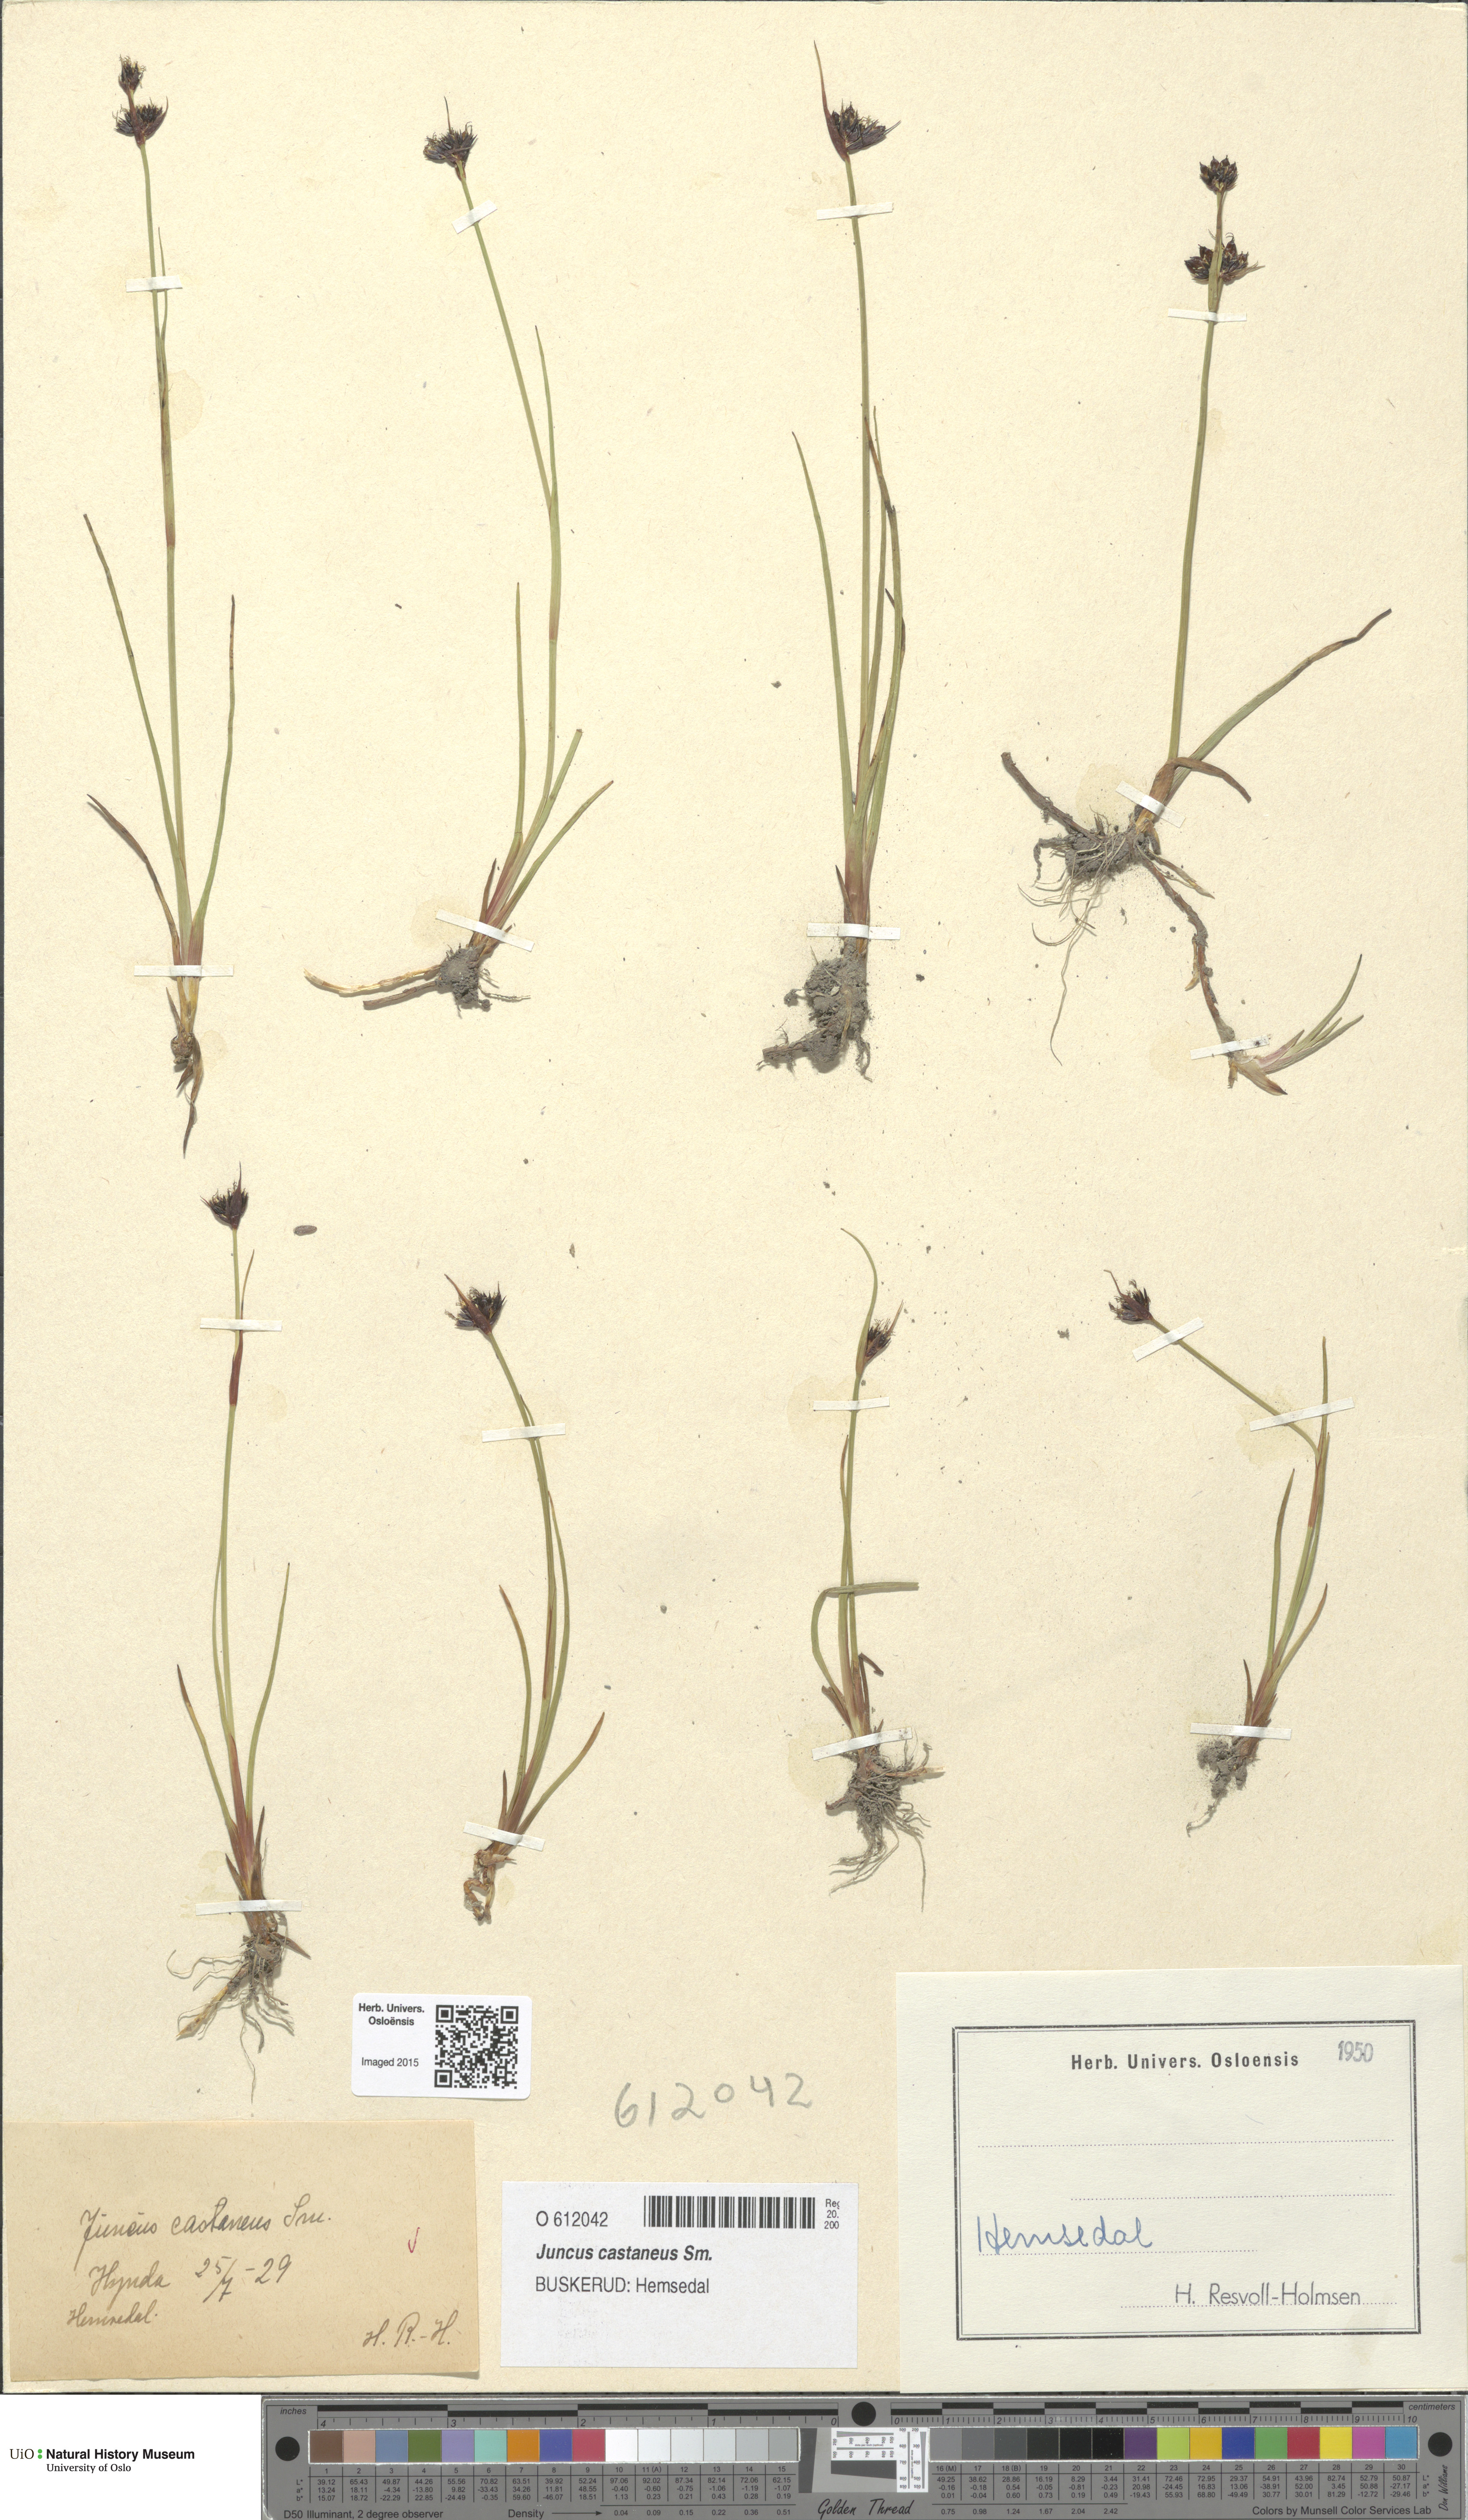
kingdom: Plantae
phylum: Tracheophyta
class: Liliopsida
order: Poales
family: Juncaceae
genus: Juncus
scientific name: Juncus castaneus
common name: Chestnut rush
